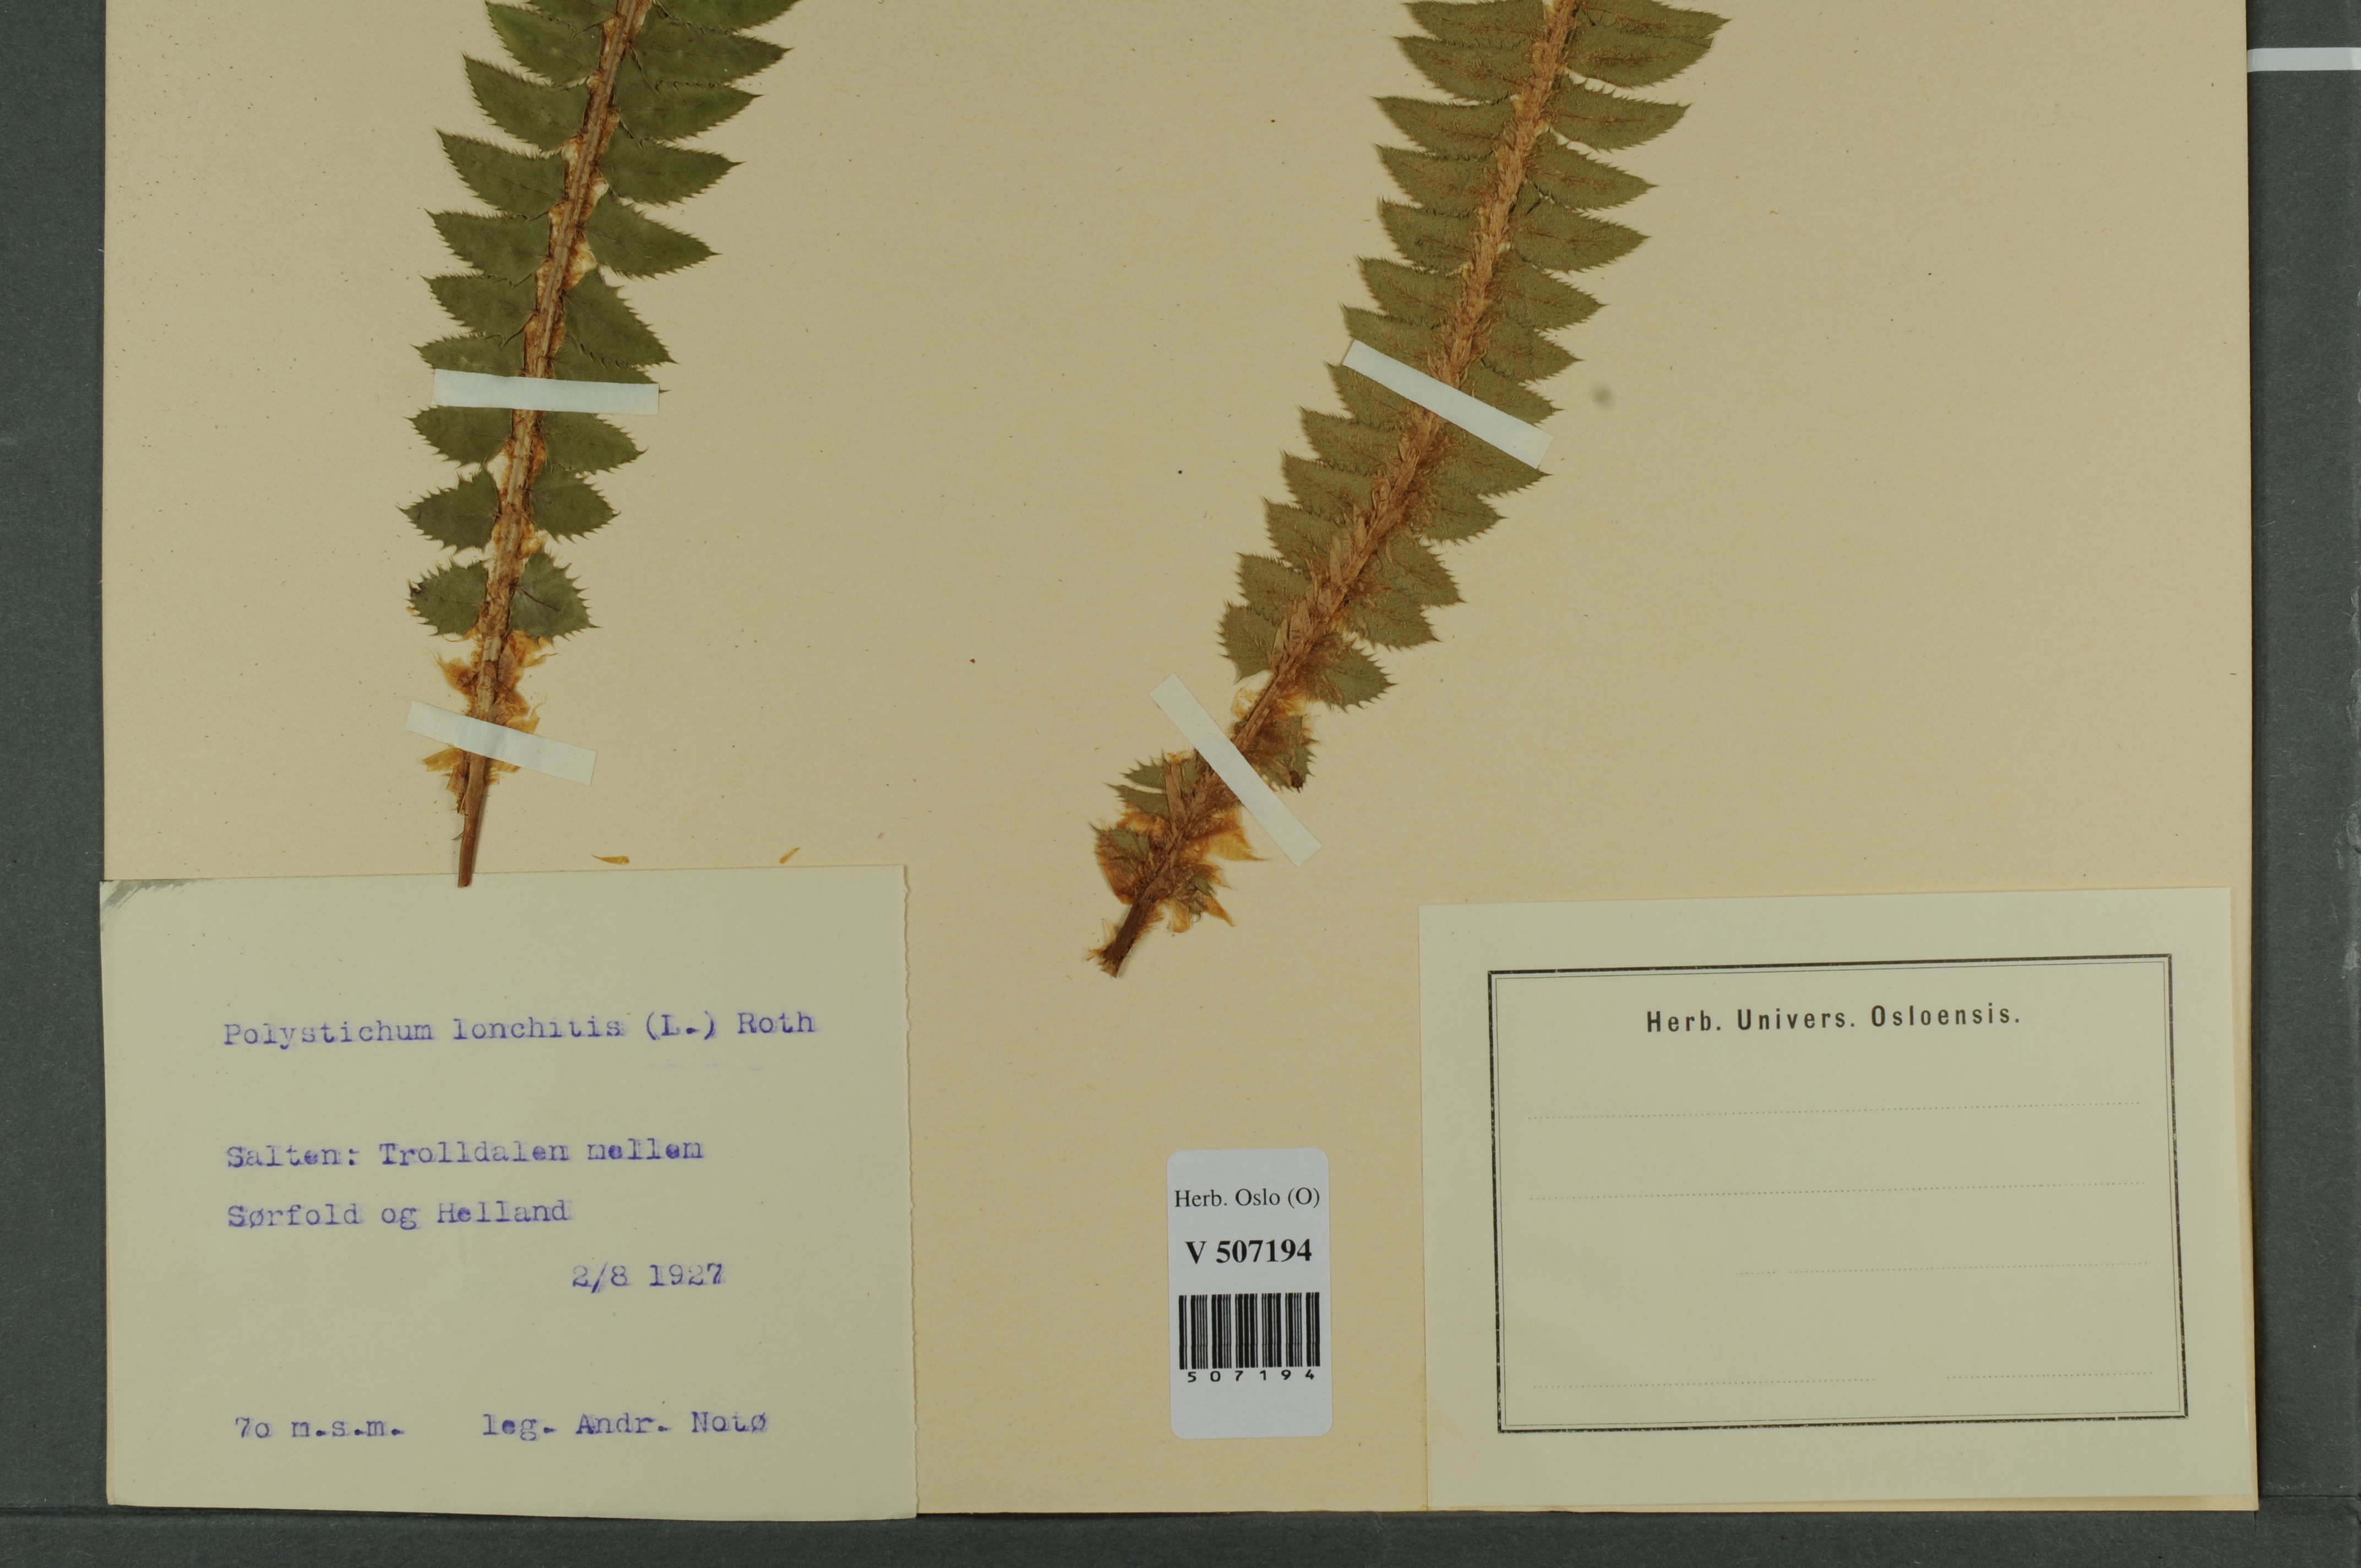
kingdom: Plantae
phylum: Tracheophyta
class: Polypodiopsida
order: Polypodiales
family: Dryopteridaceae
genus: Polystichum
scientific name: Polystichum lonchitis
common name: Holly fern
